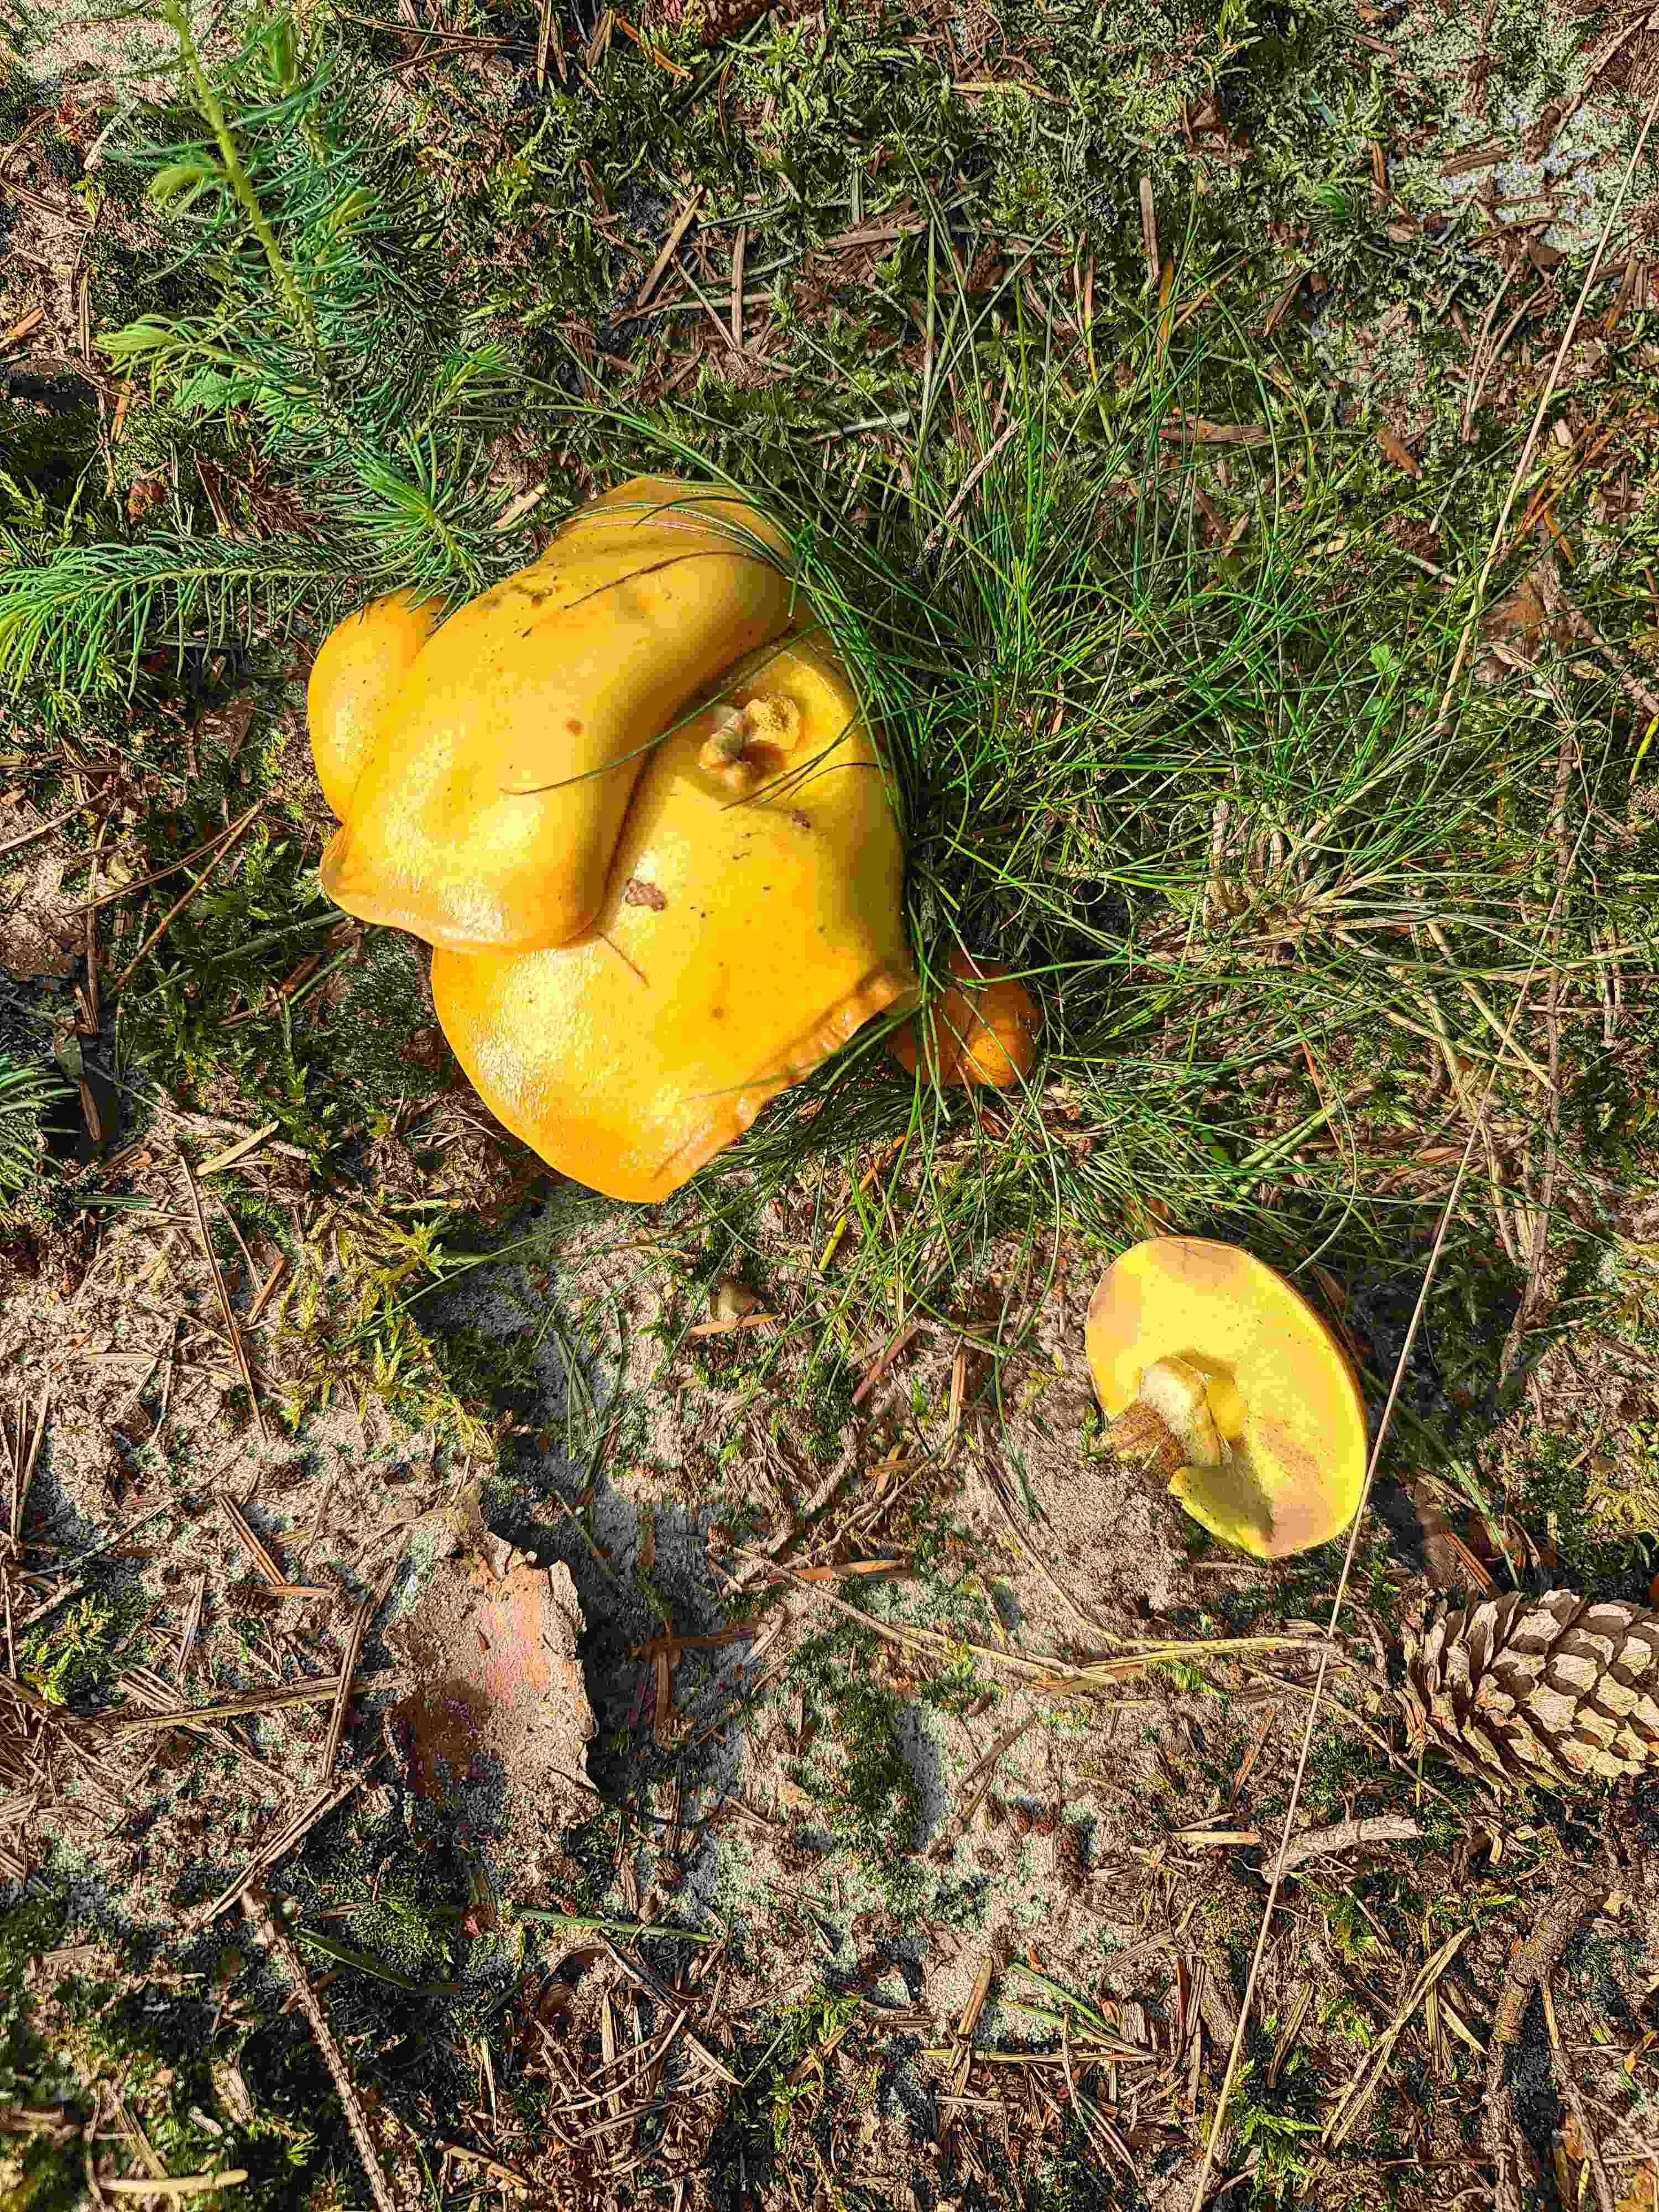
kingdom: Fungi
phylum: Basidiomycota
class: Agaricomycetes
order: Boletales
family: Suillaceae
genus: Suillus
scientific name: Suillus grevillei
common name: lærke-slimrørhat
